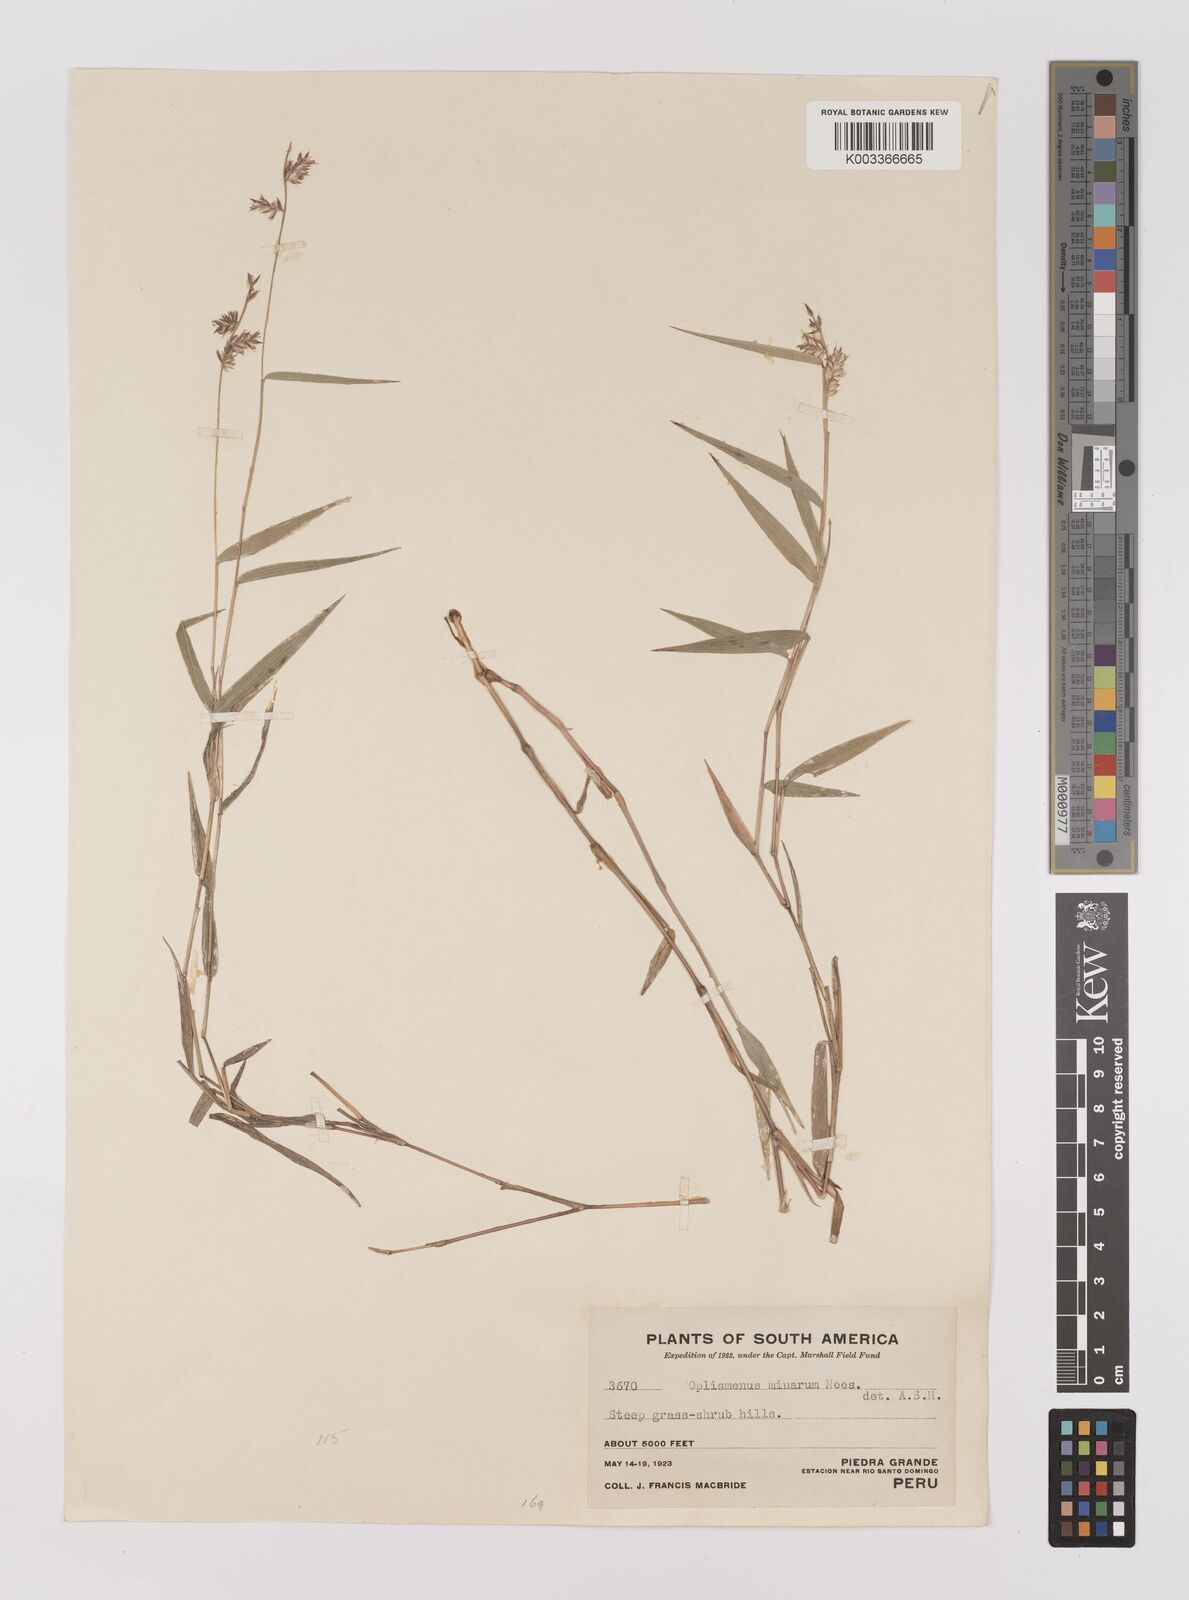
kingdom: Plantae
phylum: Tracheophyta
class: Liliopsida
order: Poales
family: Poaceae
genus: Oedochloa
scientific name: Oedochloa minarum
